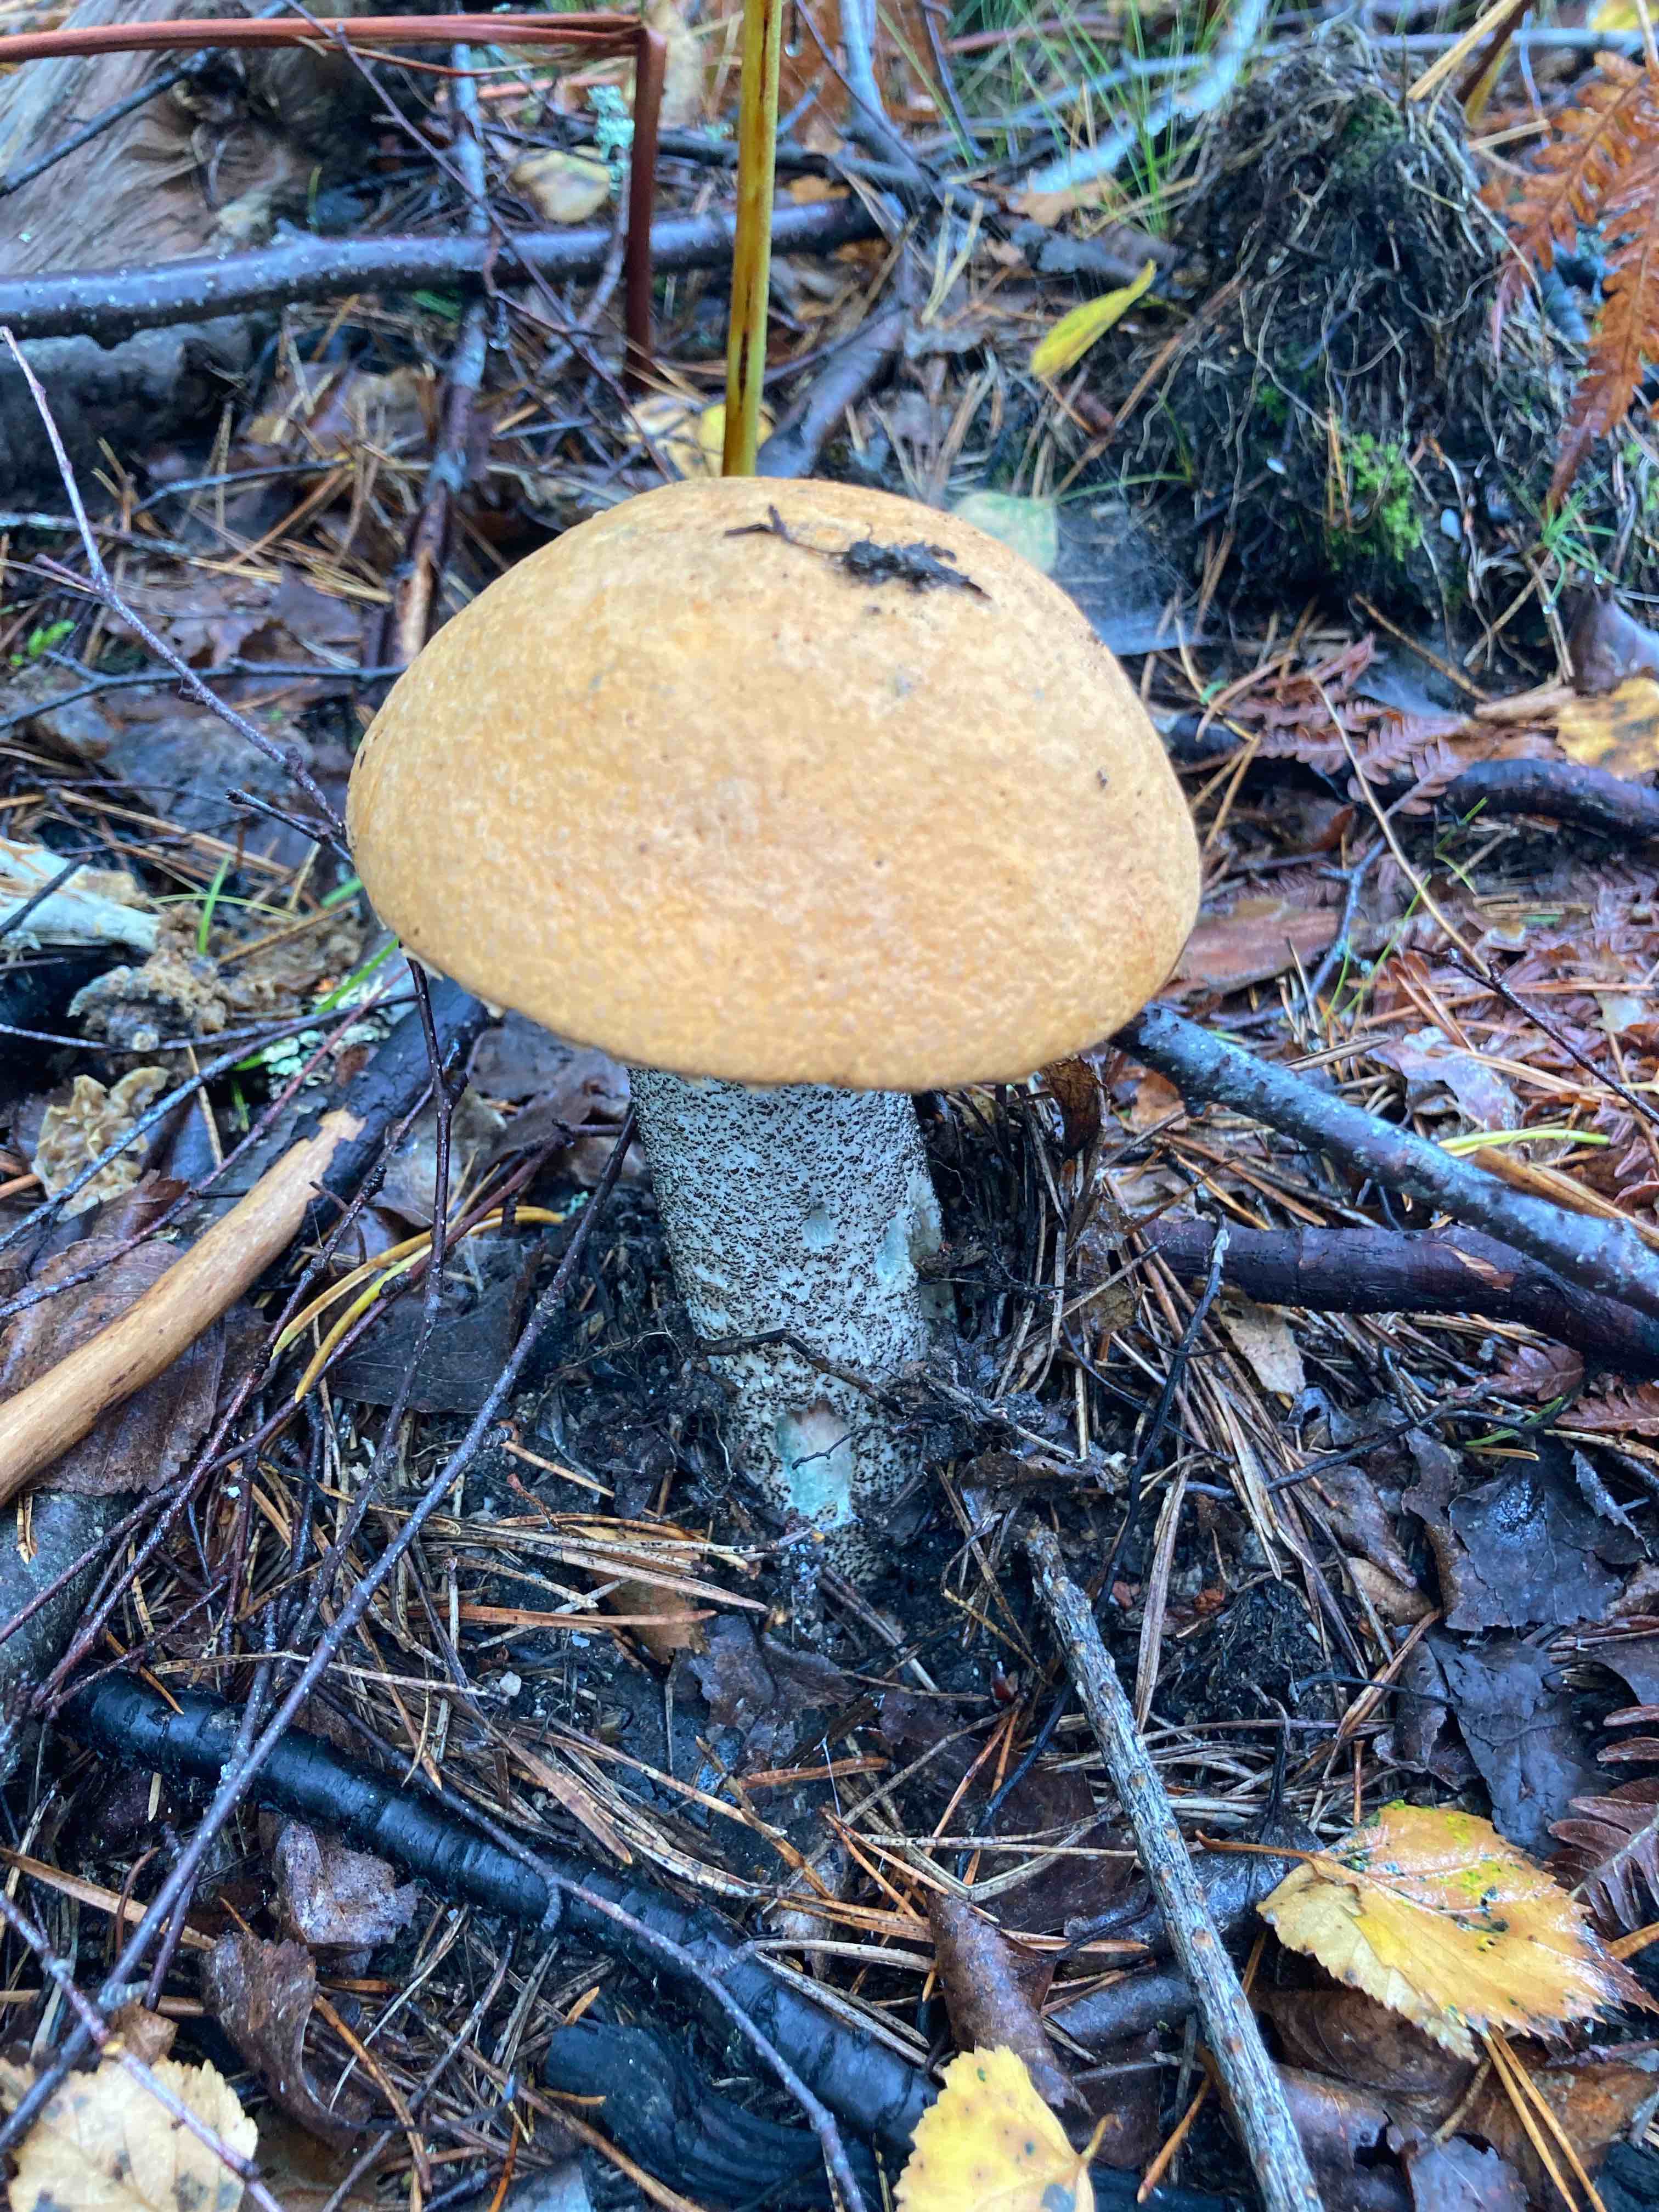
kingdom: Fungi
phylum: Basidiomycota
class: Agaricomycetes
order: Boletales
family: Boletaceae
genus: Leccinum
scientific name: Leccinum versipelle
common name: orange skælrørhat
